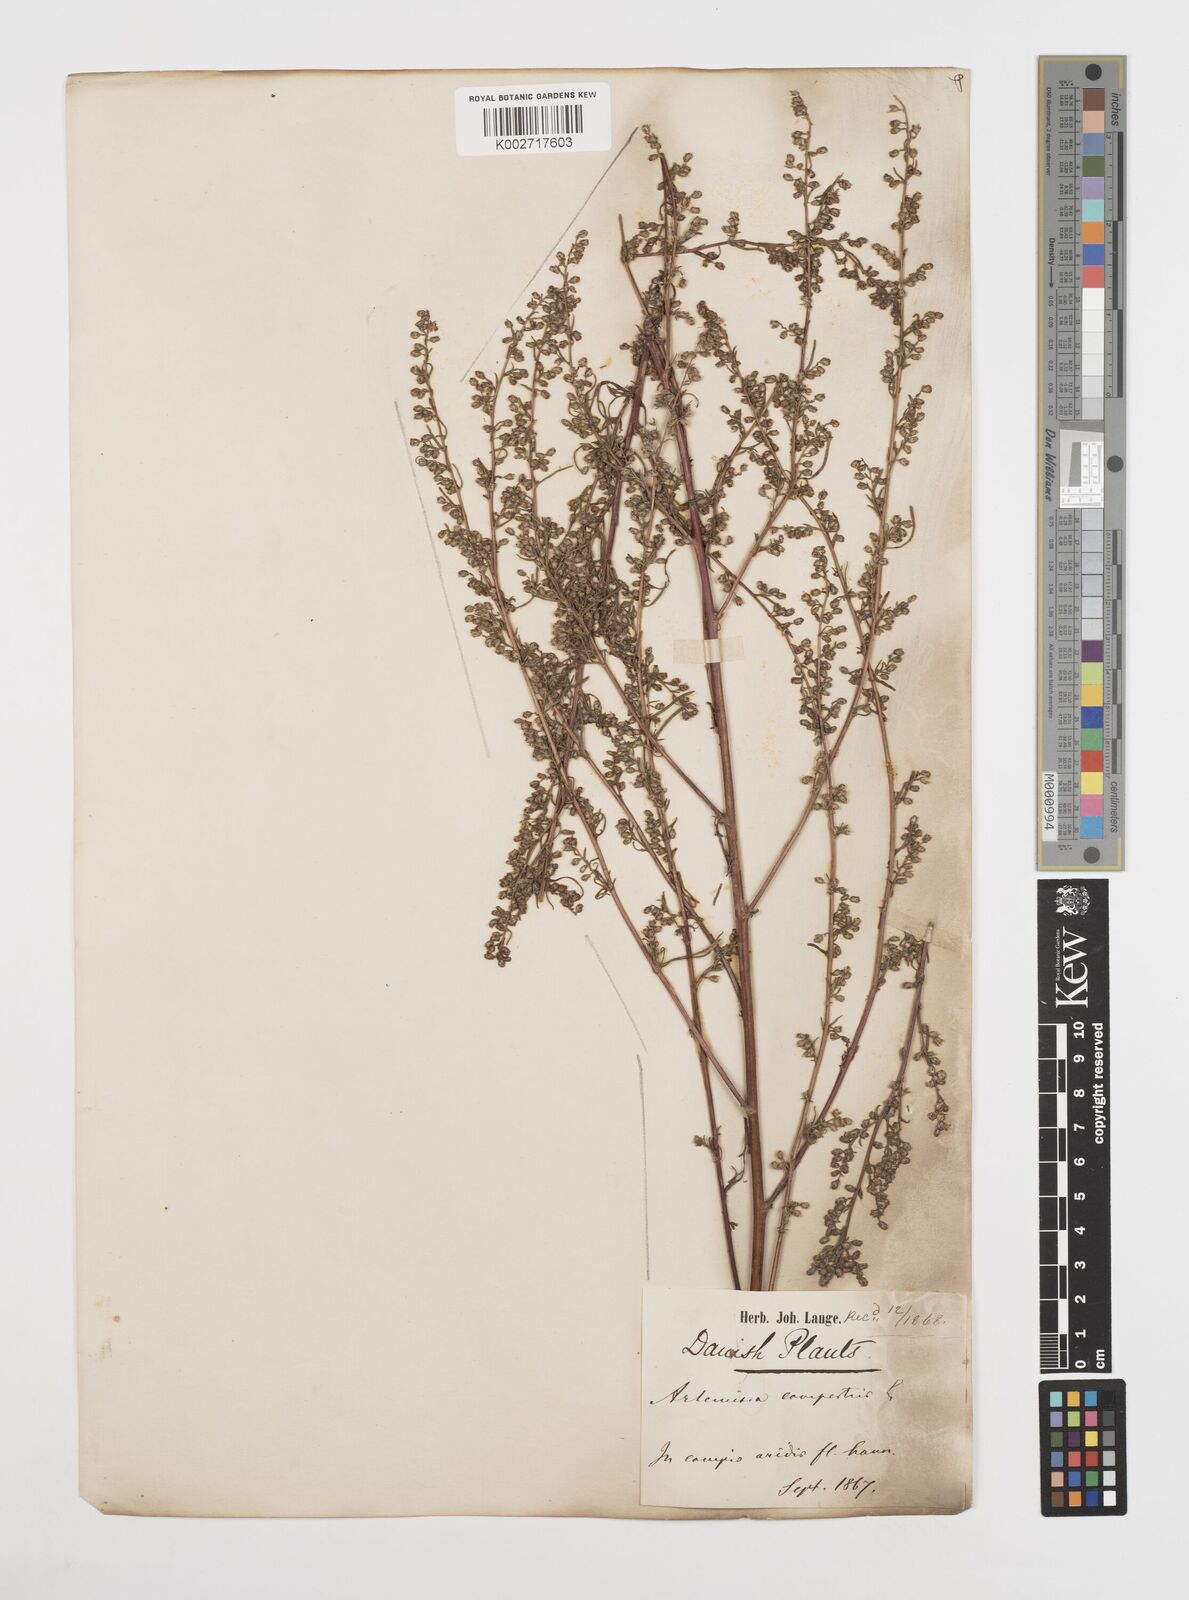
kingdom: Plantae
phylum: Tracheophyta
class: Magnoliopsida
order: Asterales
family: Asteraceae
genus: Artemisia
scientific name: Artemisia campestris
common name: Field wormwood
